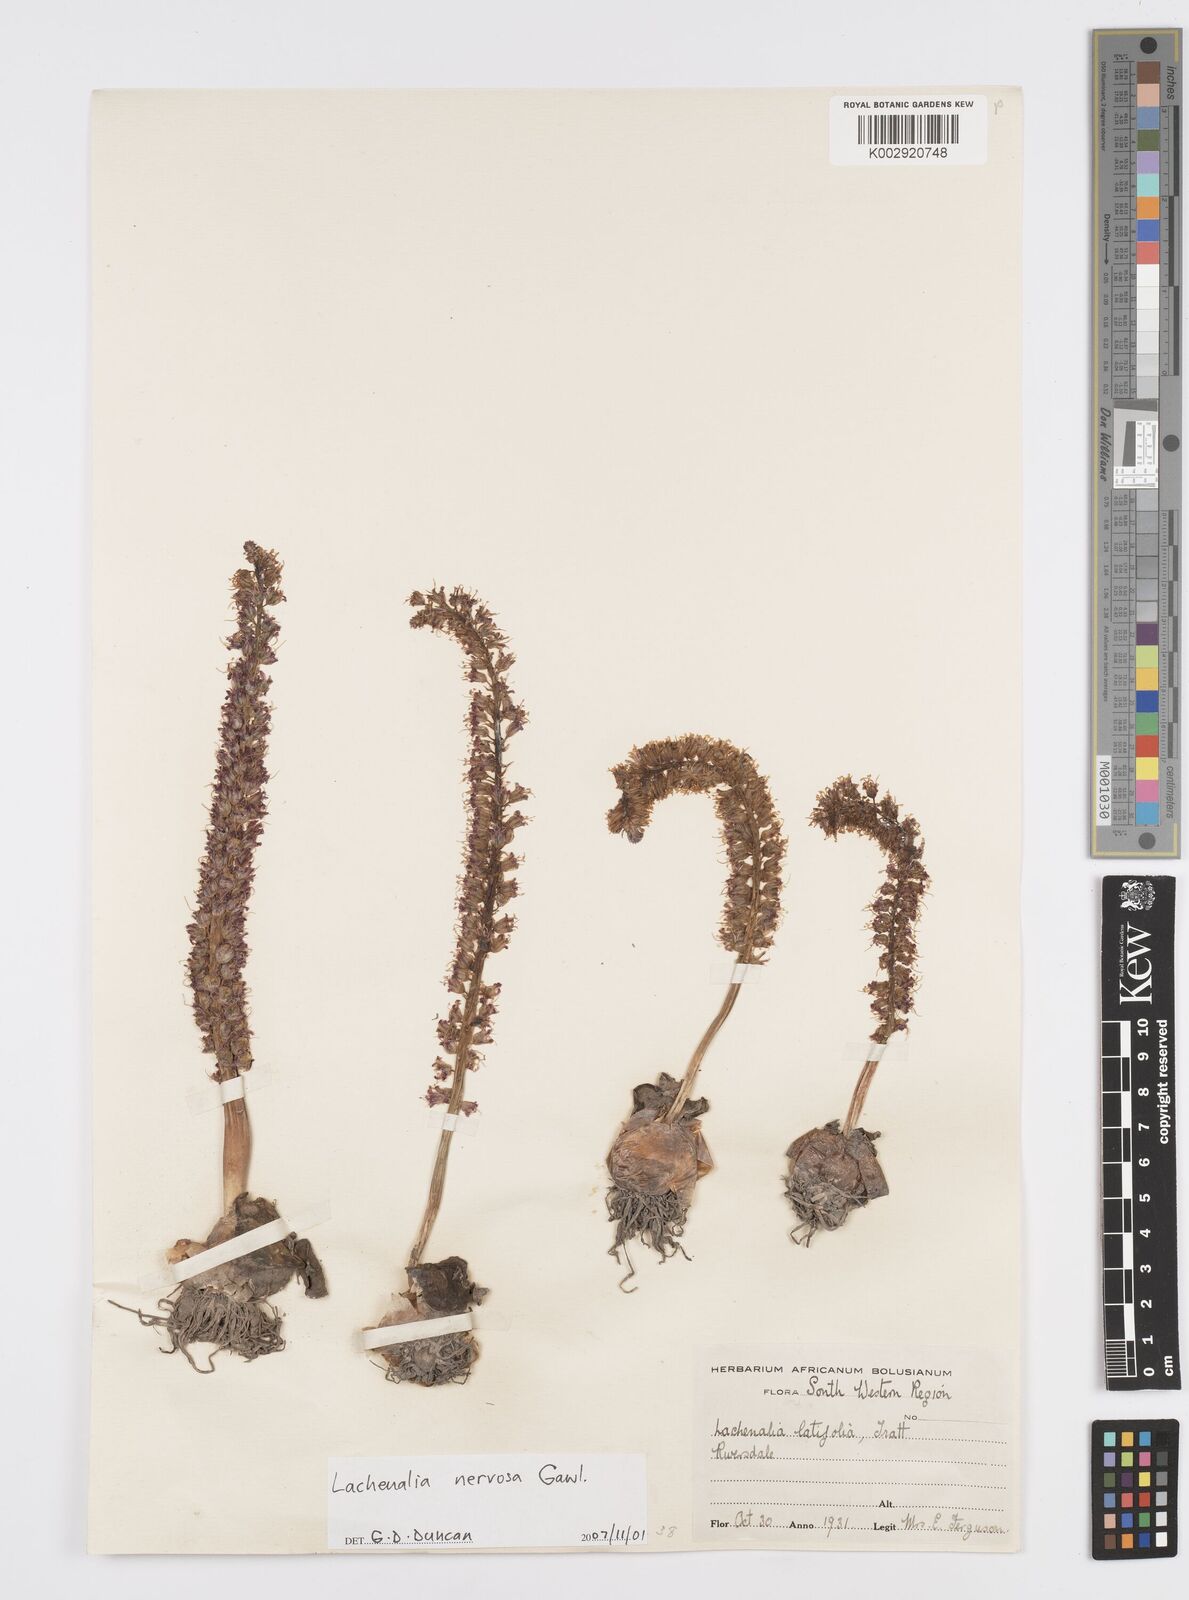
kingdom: Plantae
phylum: Tracheophyta
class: Liliopsida
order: Asparagales
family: Asparagaceae
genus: Lachenalia
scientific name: Lachenalia nervosa
